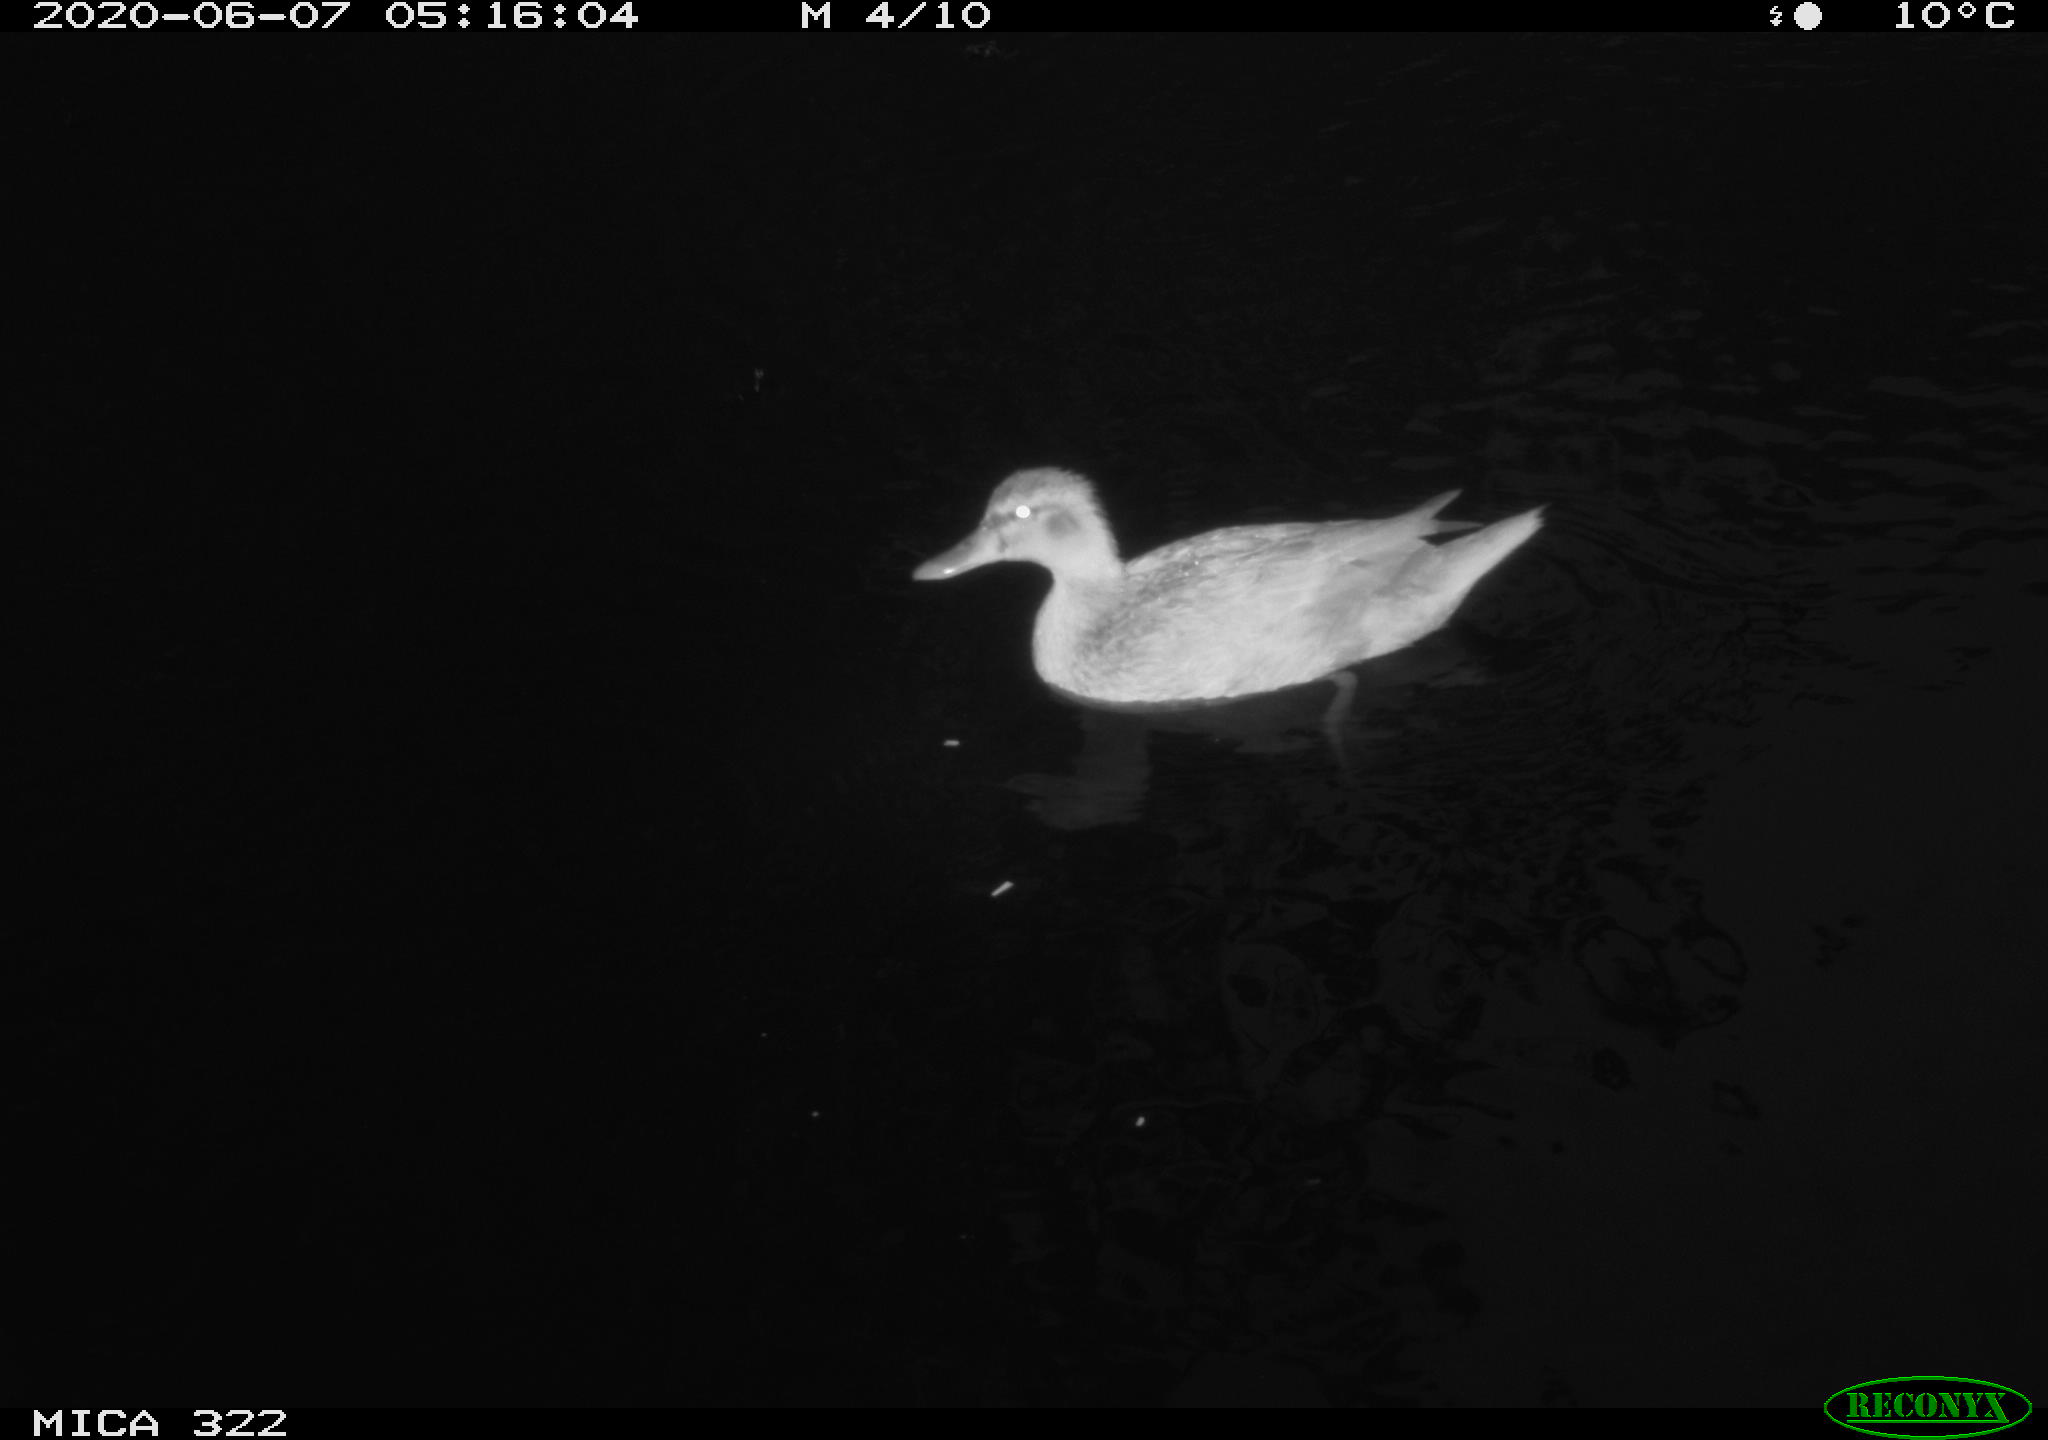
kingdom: Animalia
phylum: Chordata
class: Aves
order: Anseriformes
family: Anatidae
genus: Anas
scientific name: Anas platyrhynchos
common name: Mallard
